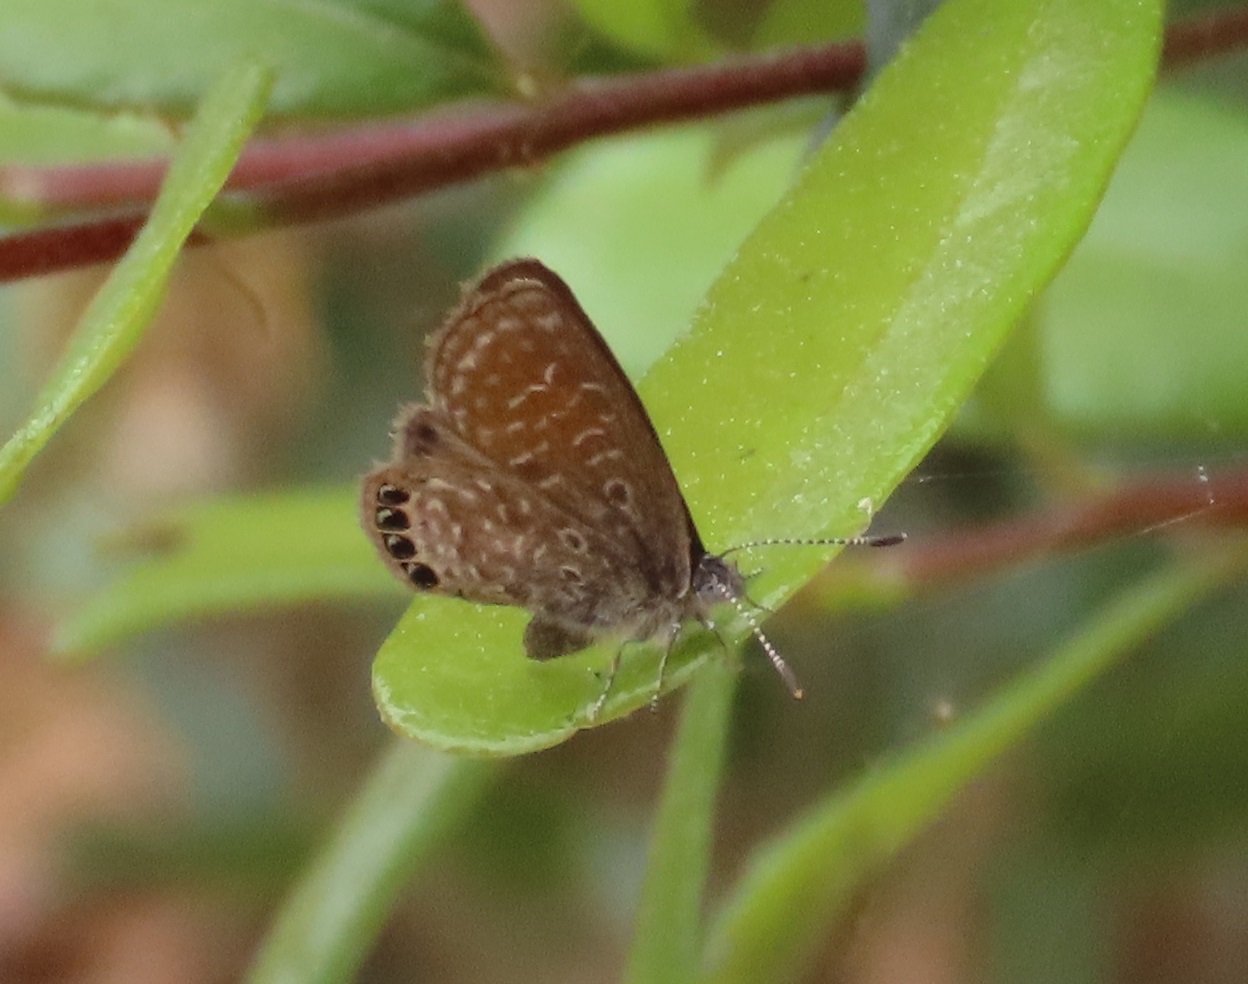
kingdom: Animalia
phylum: Arthropoda
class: Insecta
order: Lepidoptera
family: Lycaenidae
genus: Brephidium
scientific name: Brephidium isophthalma
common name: Eastern Pygmy-Blue
